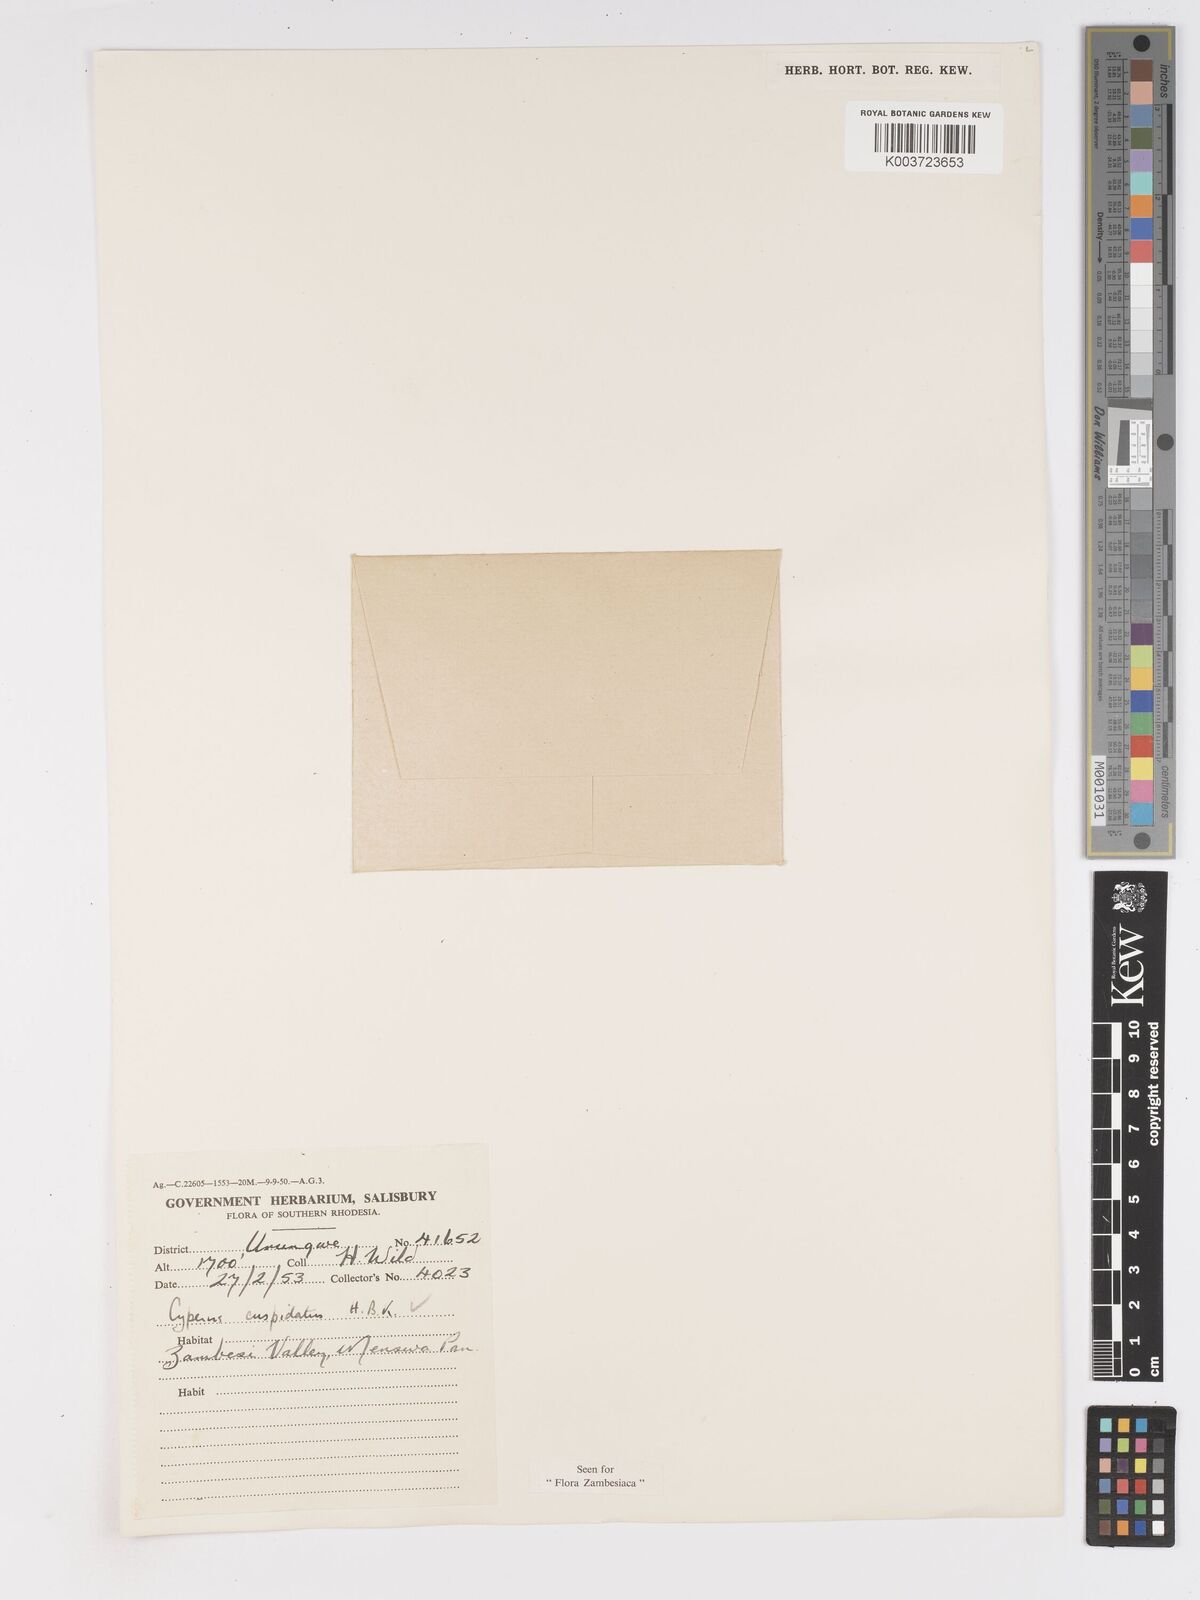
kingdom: Plantae
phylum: Tracheophyta
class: Liliopsida
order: Poales
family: Cyperaceae
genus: Cyperus
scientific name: Cyperus betafensis
